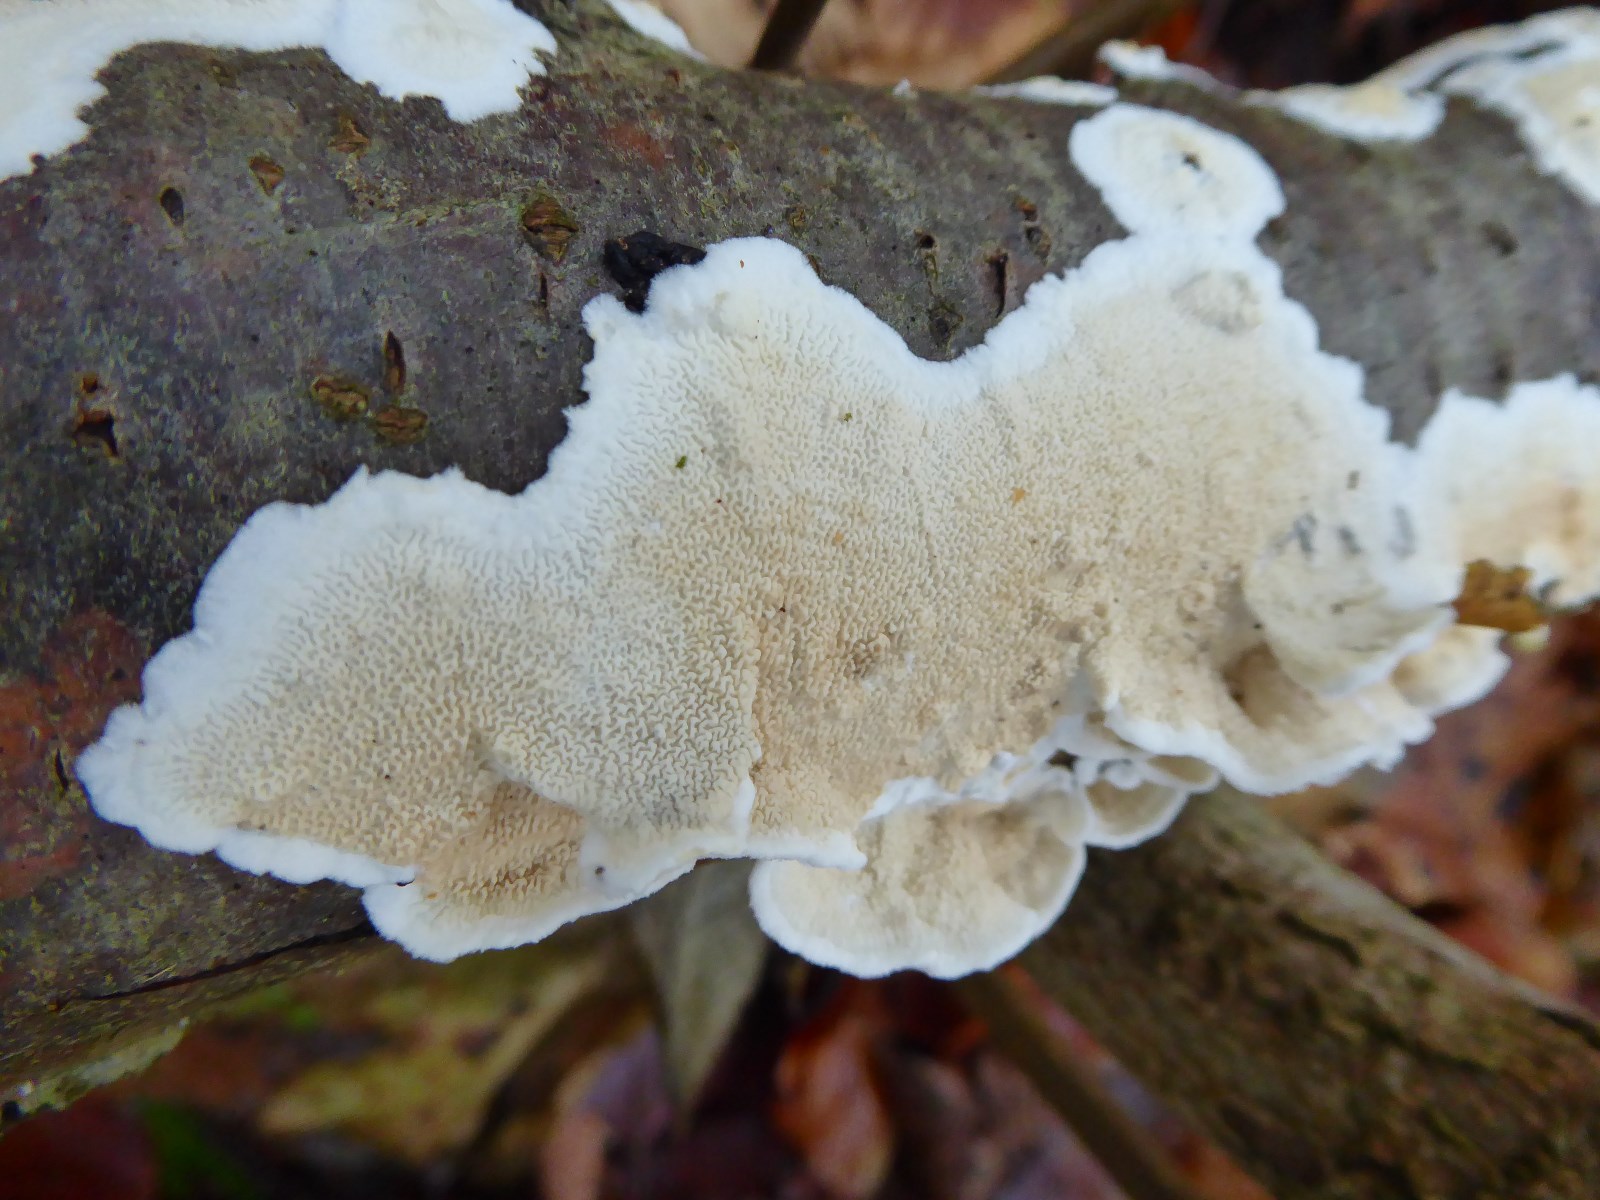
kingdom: Fungi
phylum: Basidiomycota
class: Agaricomycetes
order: Polyporales
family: Irpicaceae
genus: Byssomerulius
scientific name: Byssomerulius corium
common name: læder-åresvamp
